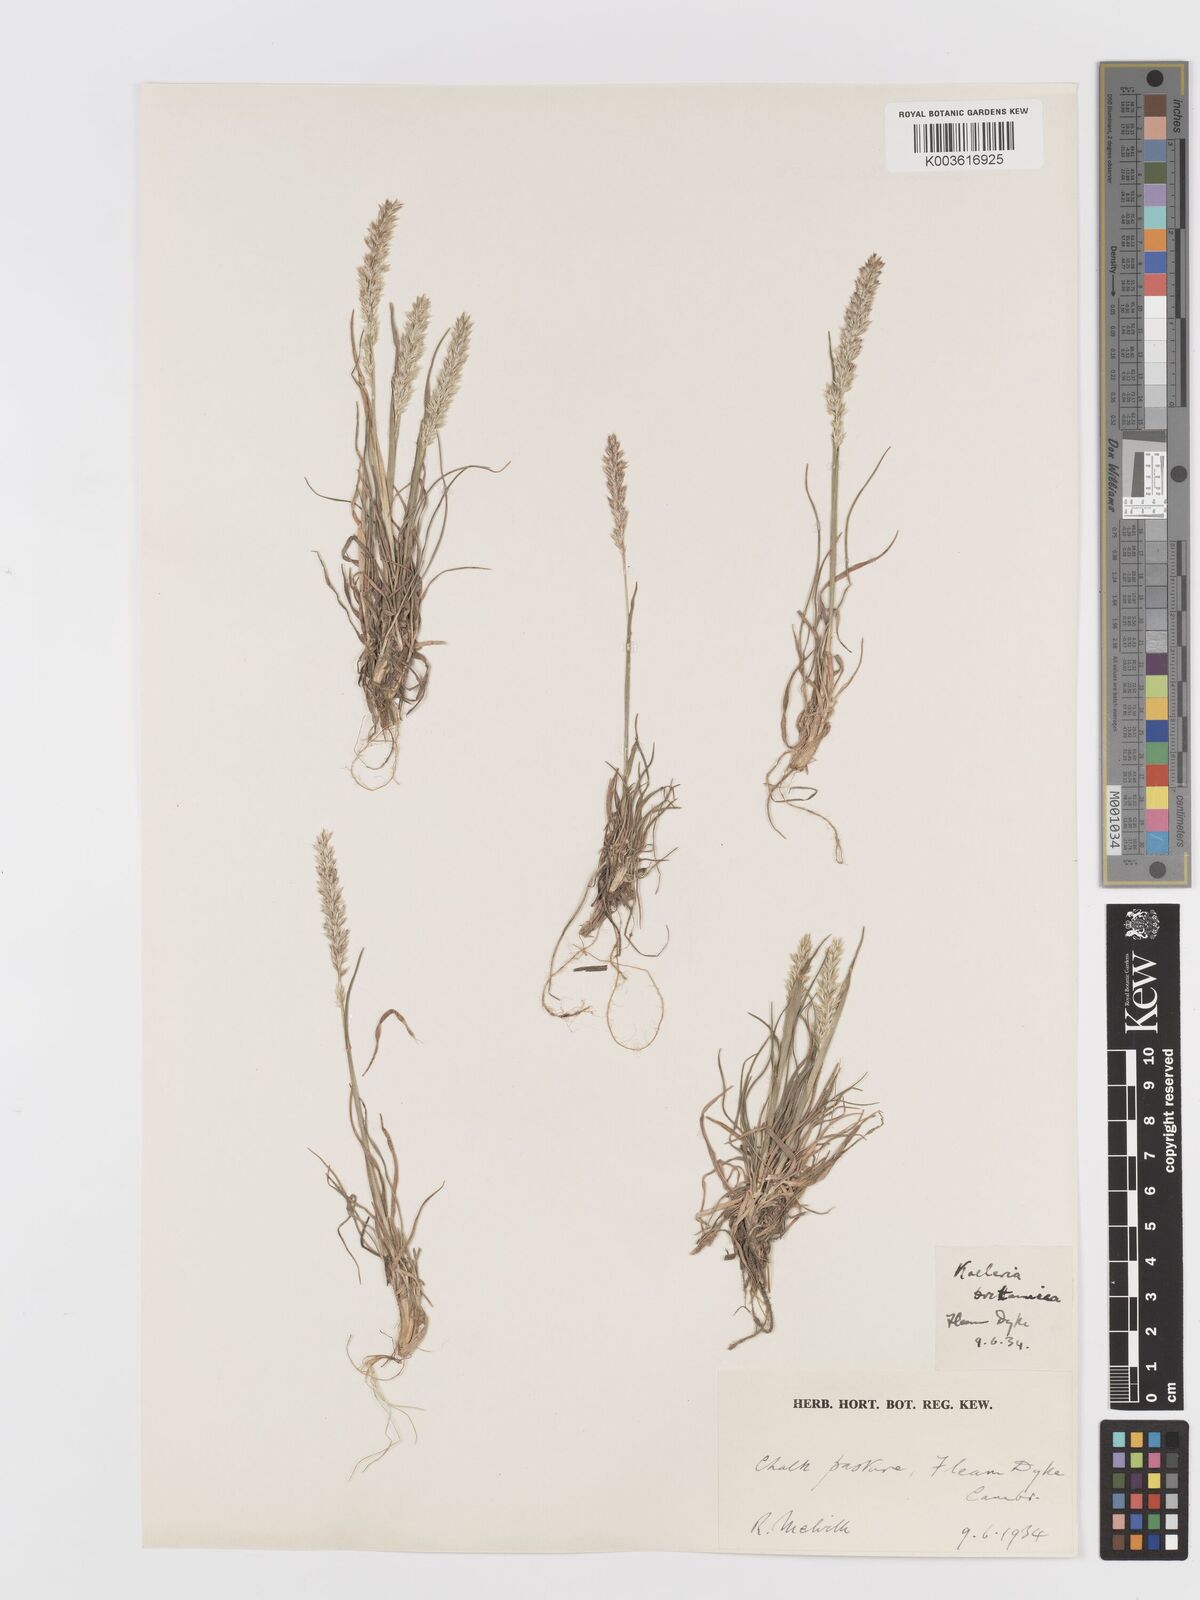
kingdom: Plantae
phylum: Tracheophyta
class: Liliopsida
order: Poales
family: Poaceae
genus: Koeleria
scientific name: Koeleria macrantha
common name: Crested hair-grass
